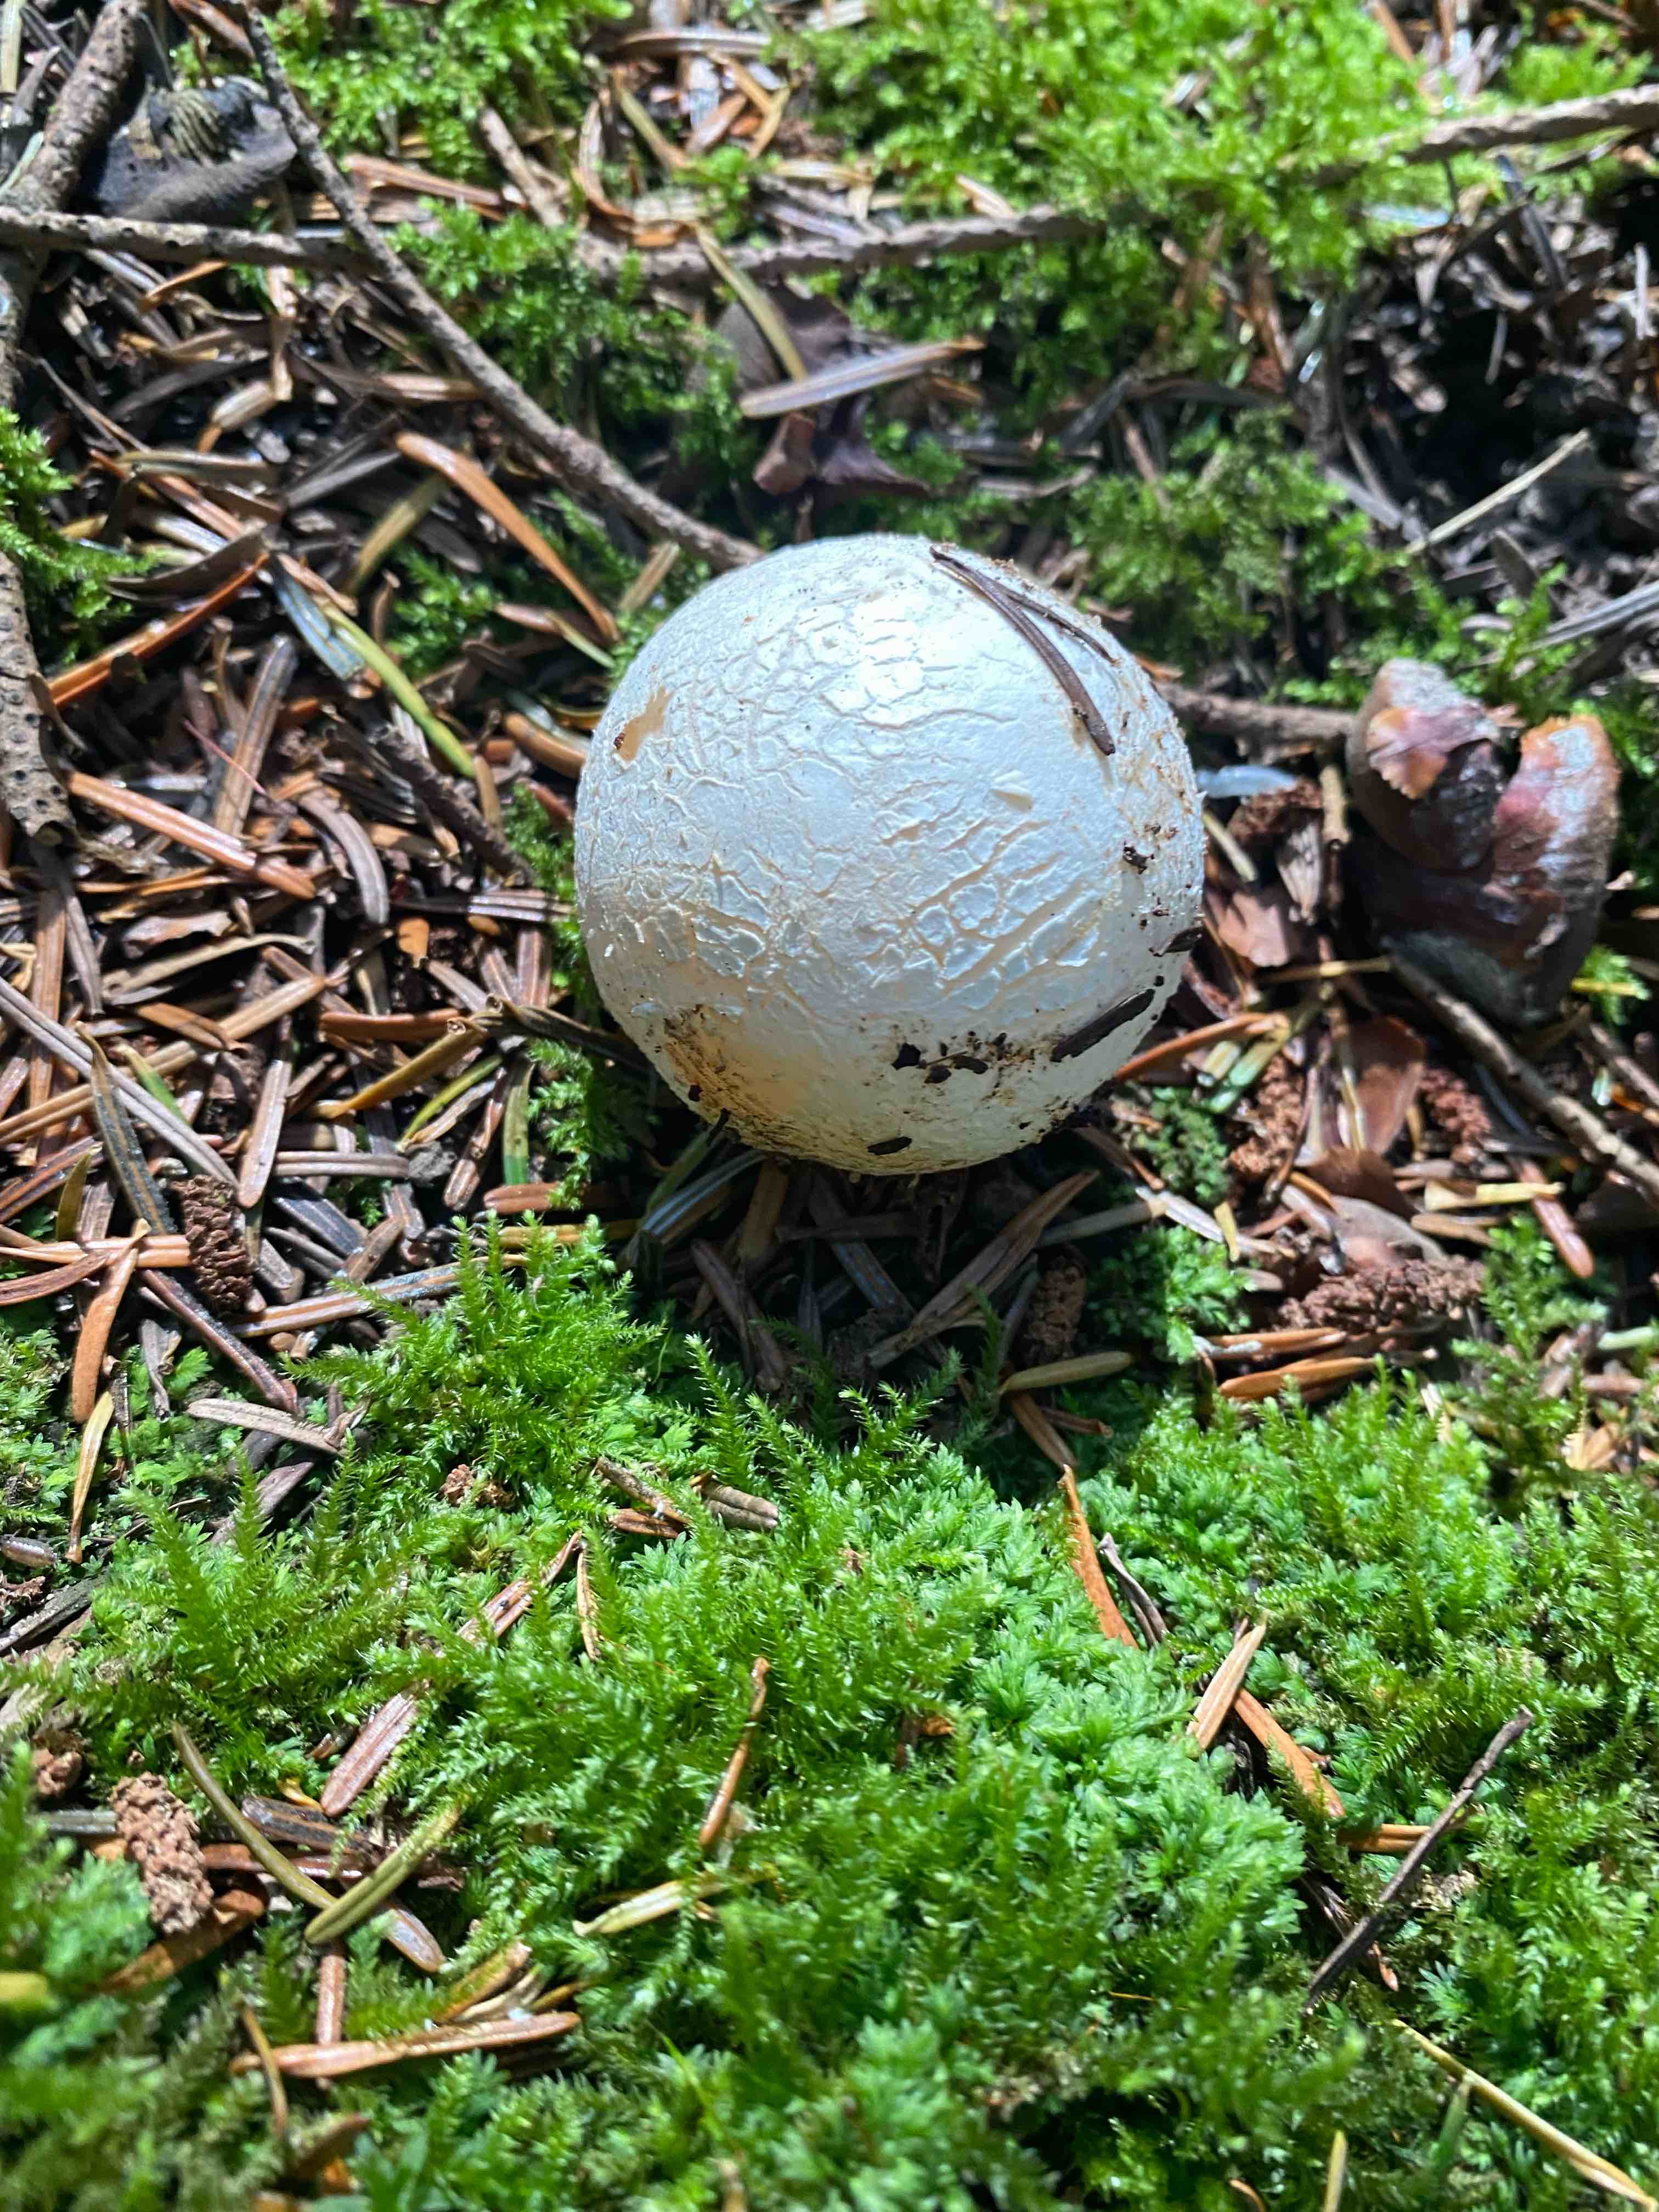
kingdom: Fungi
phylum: Basidiomycota
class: Agaricomycetes
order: Phallales
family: Phallaceae
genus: Phallus
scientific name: Phallus impudicus
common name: almindelig stinksvamp
